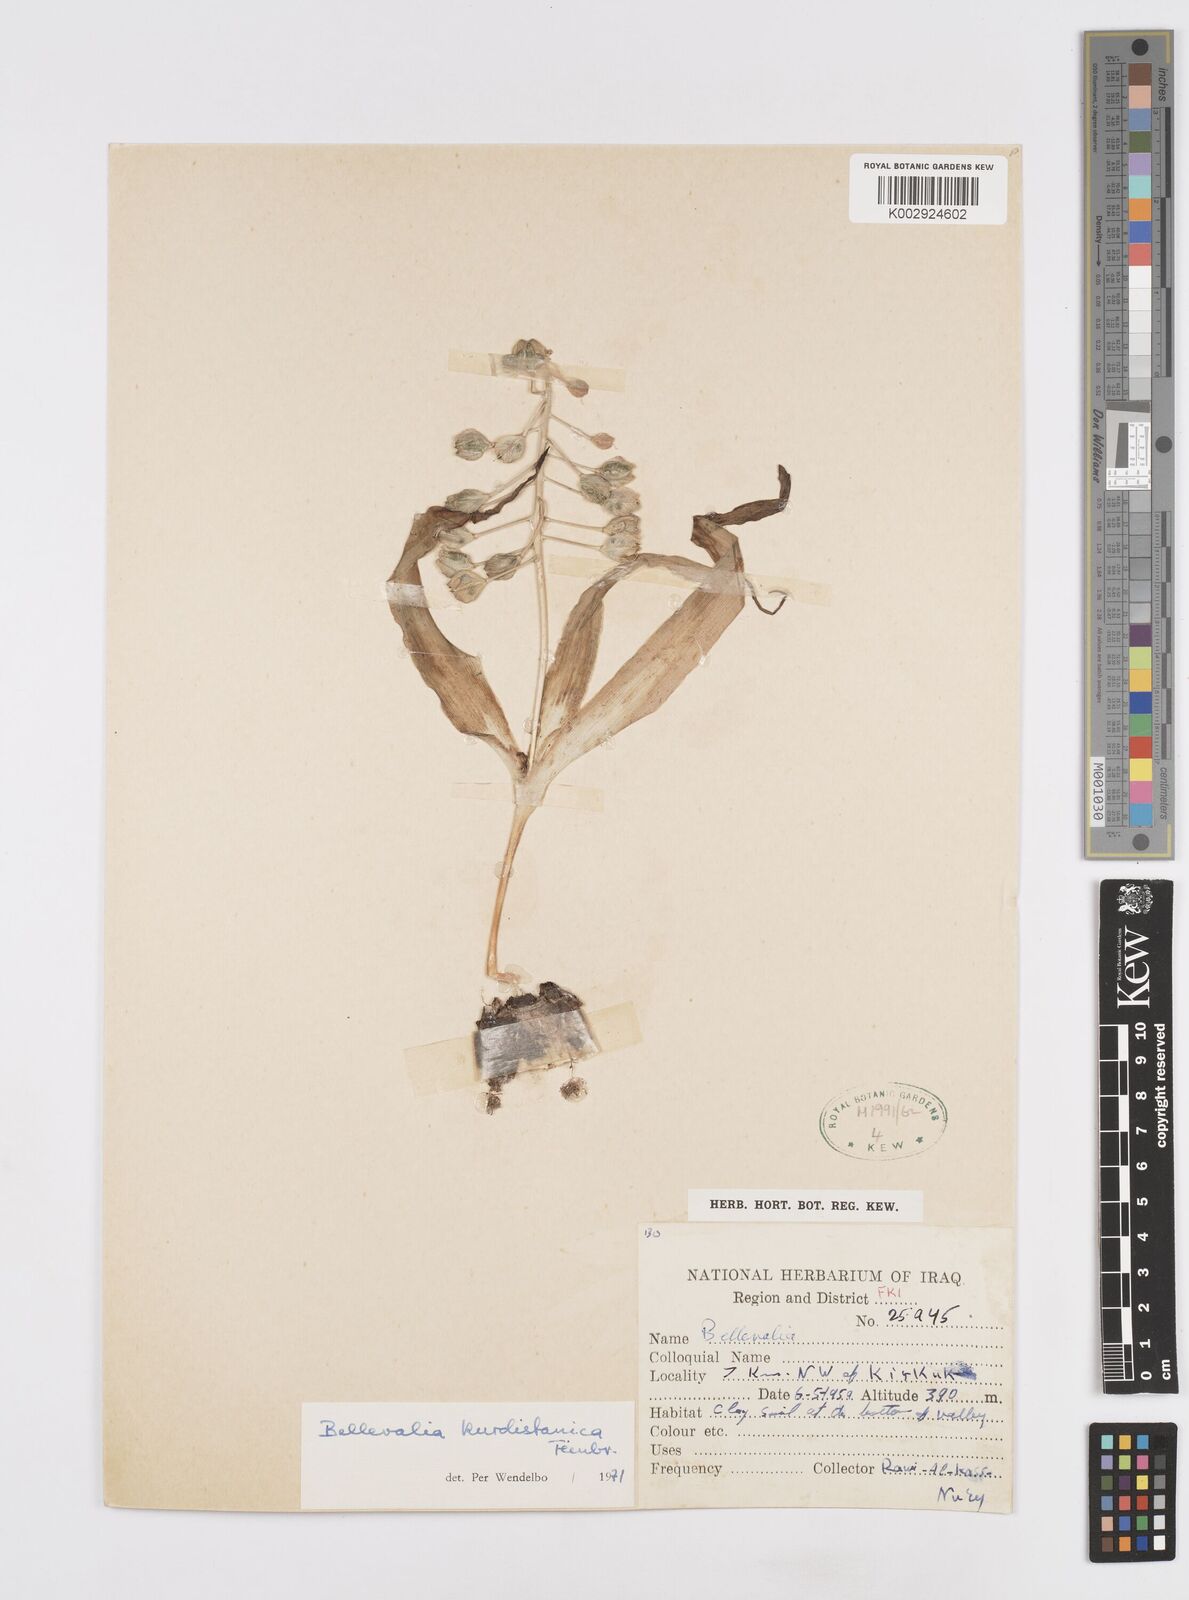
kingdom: Plantae
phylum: Tracheophyta
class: Liliopsida
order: Asparagales
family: Asparagaceae
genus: Bellevalia
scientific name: Bellevalia kurdistanica
